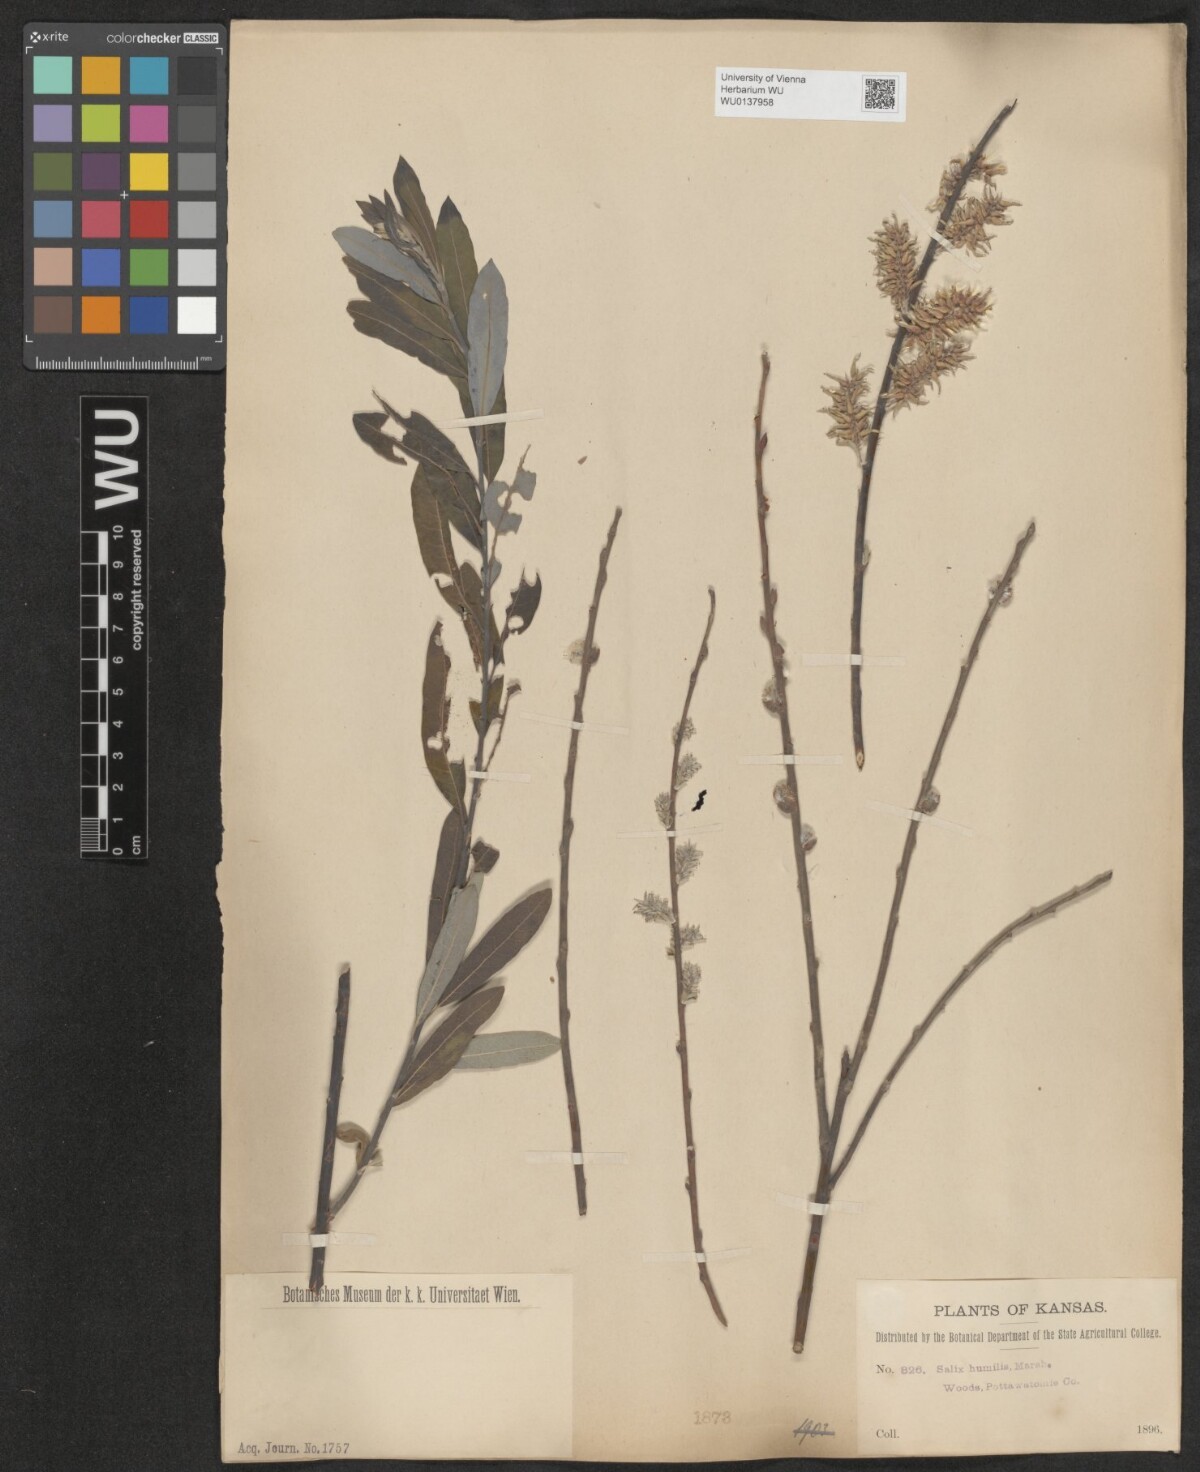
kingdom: Plantae
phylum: Tracheophyta
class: Magnoliopsida
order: Malpighiales
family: Salicaceae
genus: Salix
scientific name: Salix humilis
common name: Prairie willow
